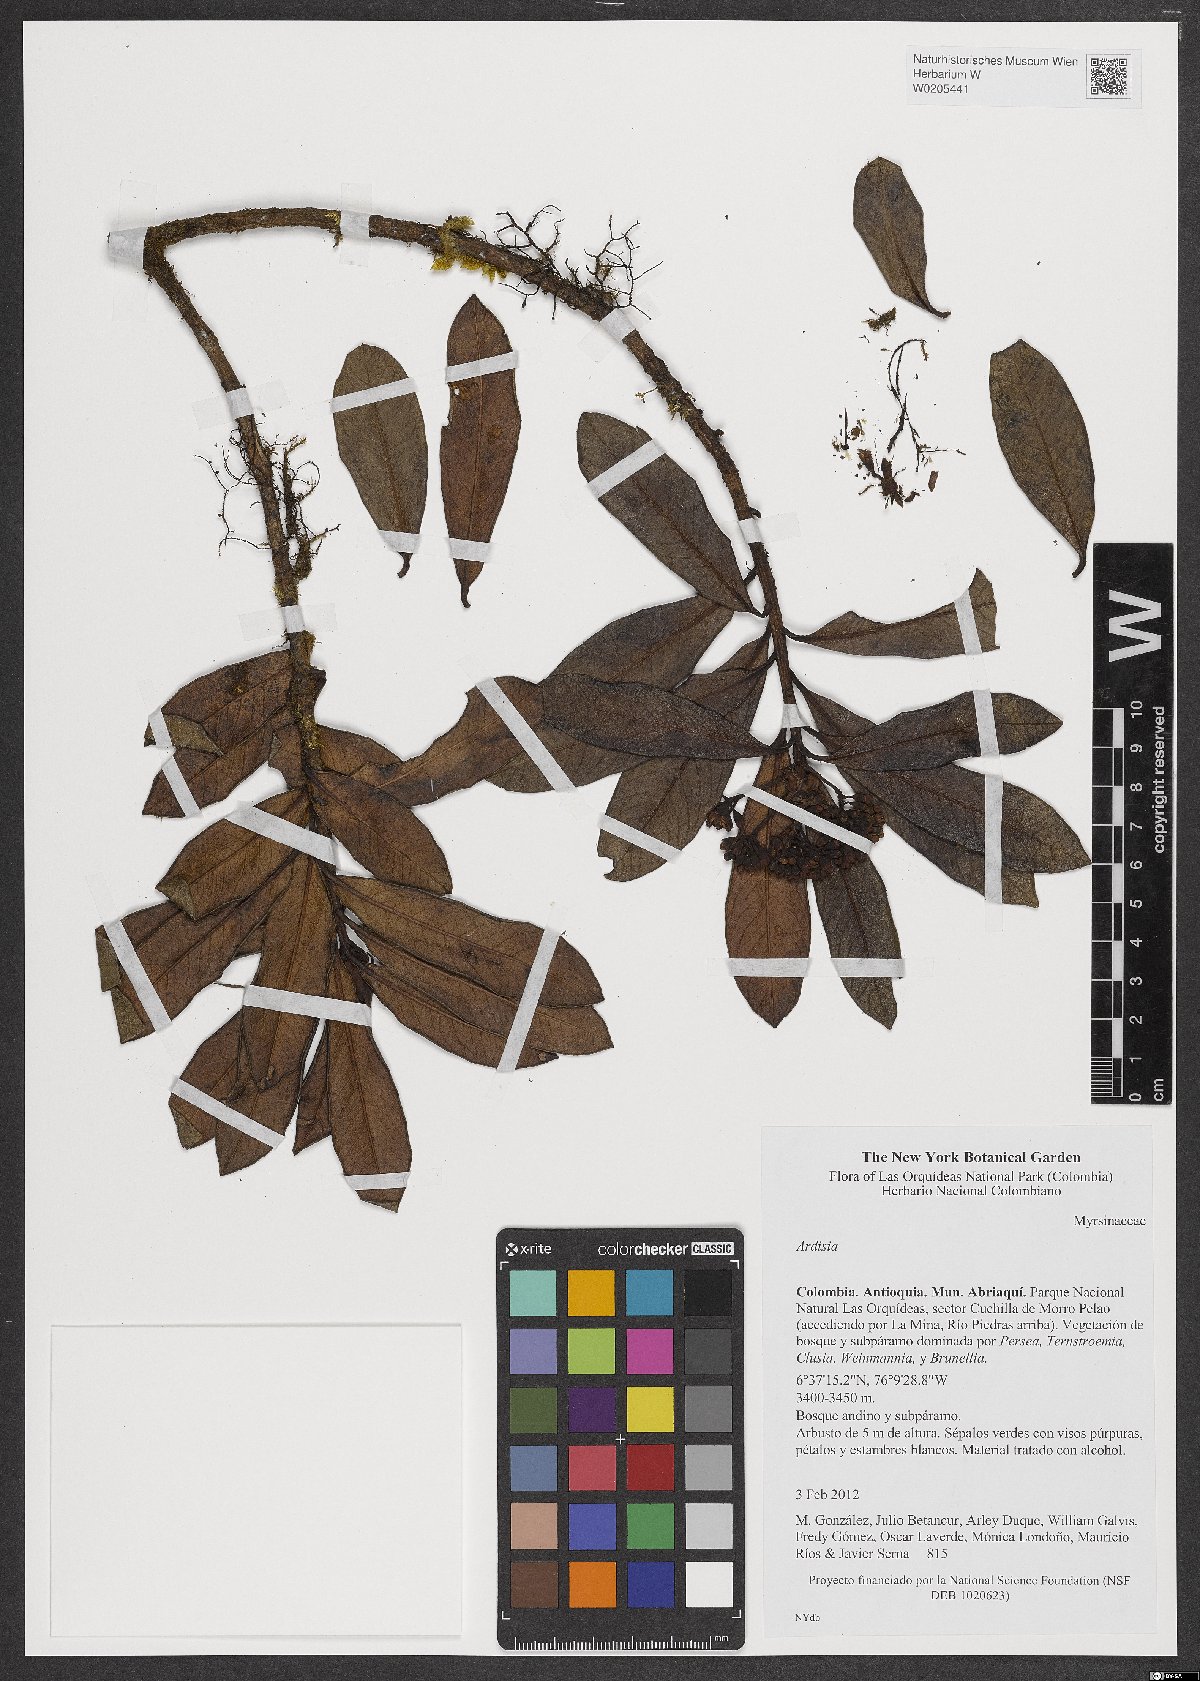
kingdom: Plantae
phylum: Tracheophyta
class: Magnoliopsida
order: Ericales
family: Primulaceae
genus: Ardisia
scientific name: Ardisia
